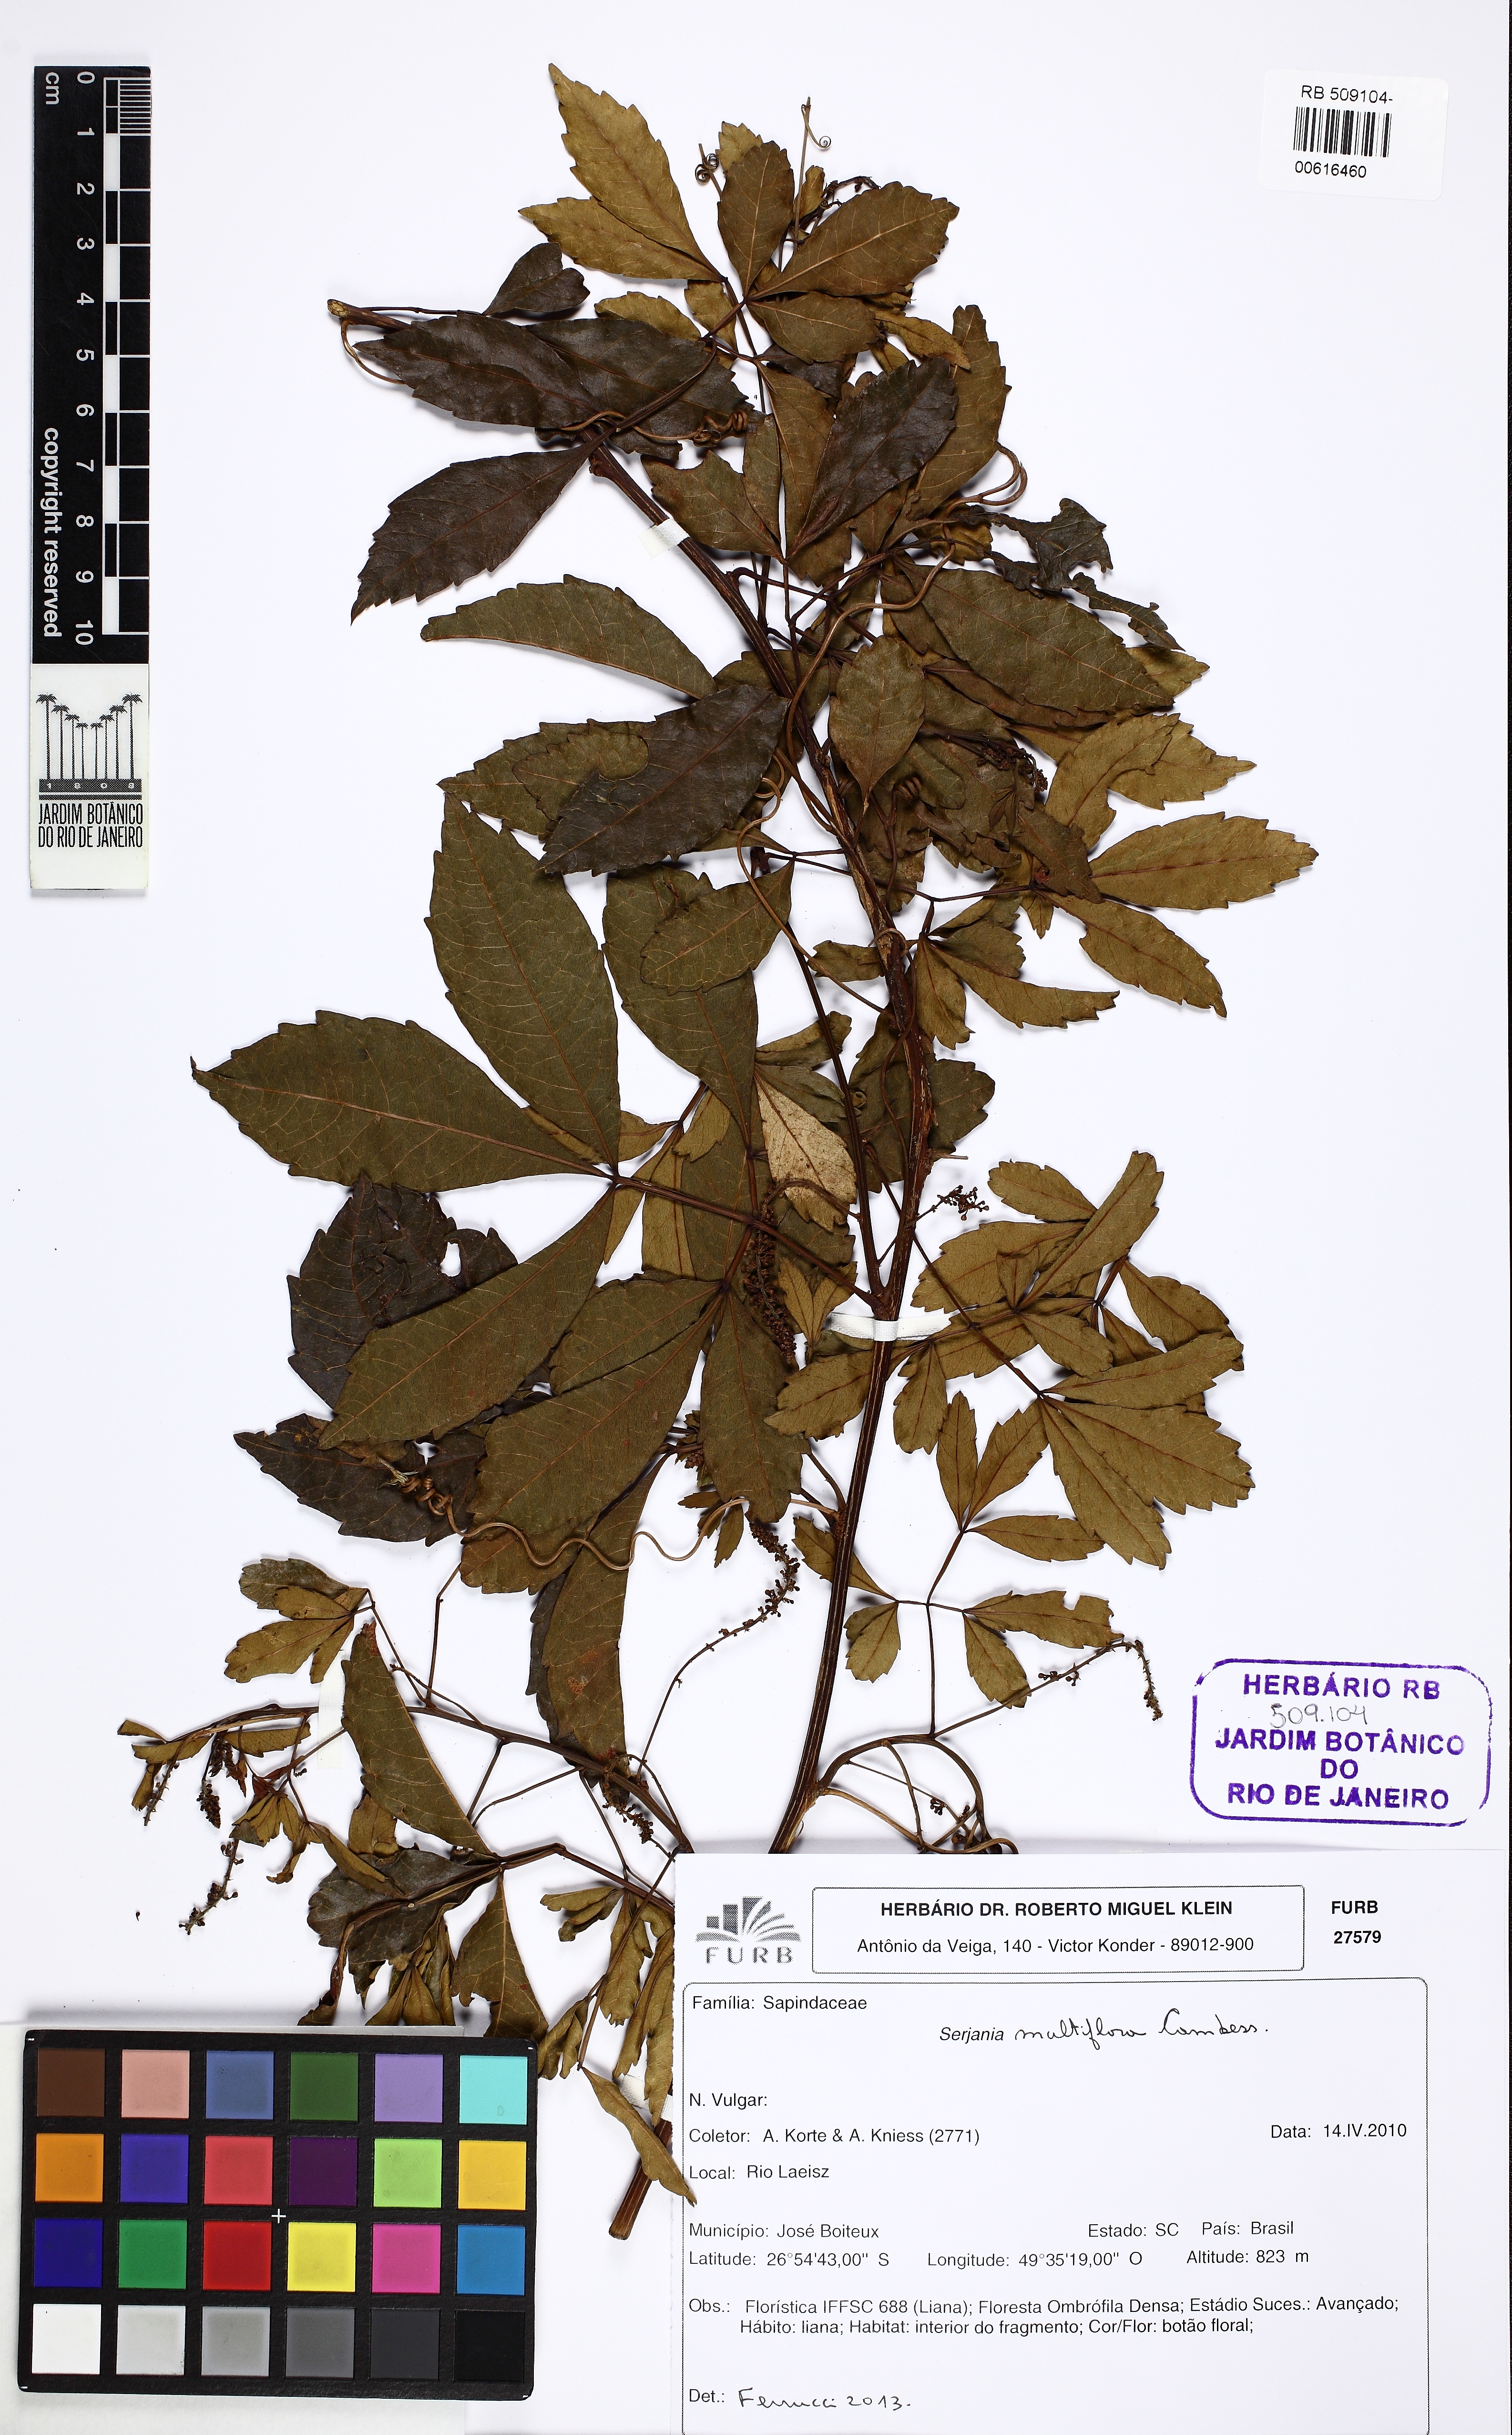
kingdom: Plantae
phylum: Tracheophyta
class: Magnoliopsida
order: Sapindales
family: Sapindaceae
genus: Serjania
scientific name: Serjania multiflora
